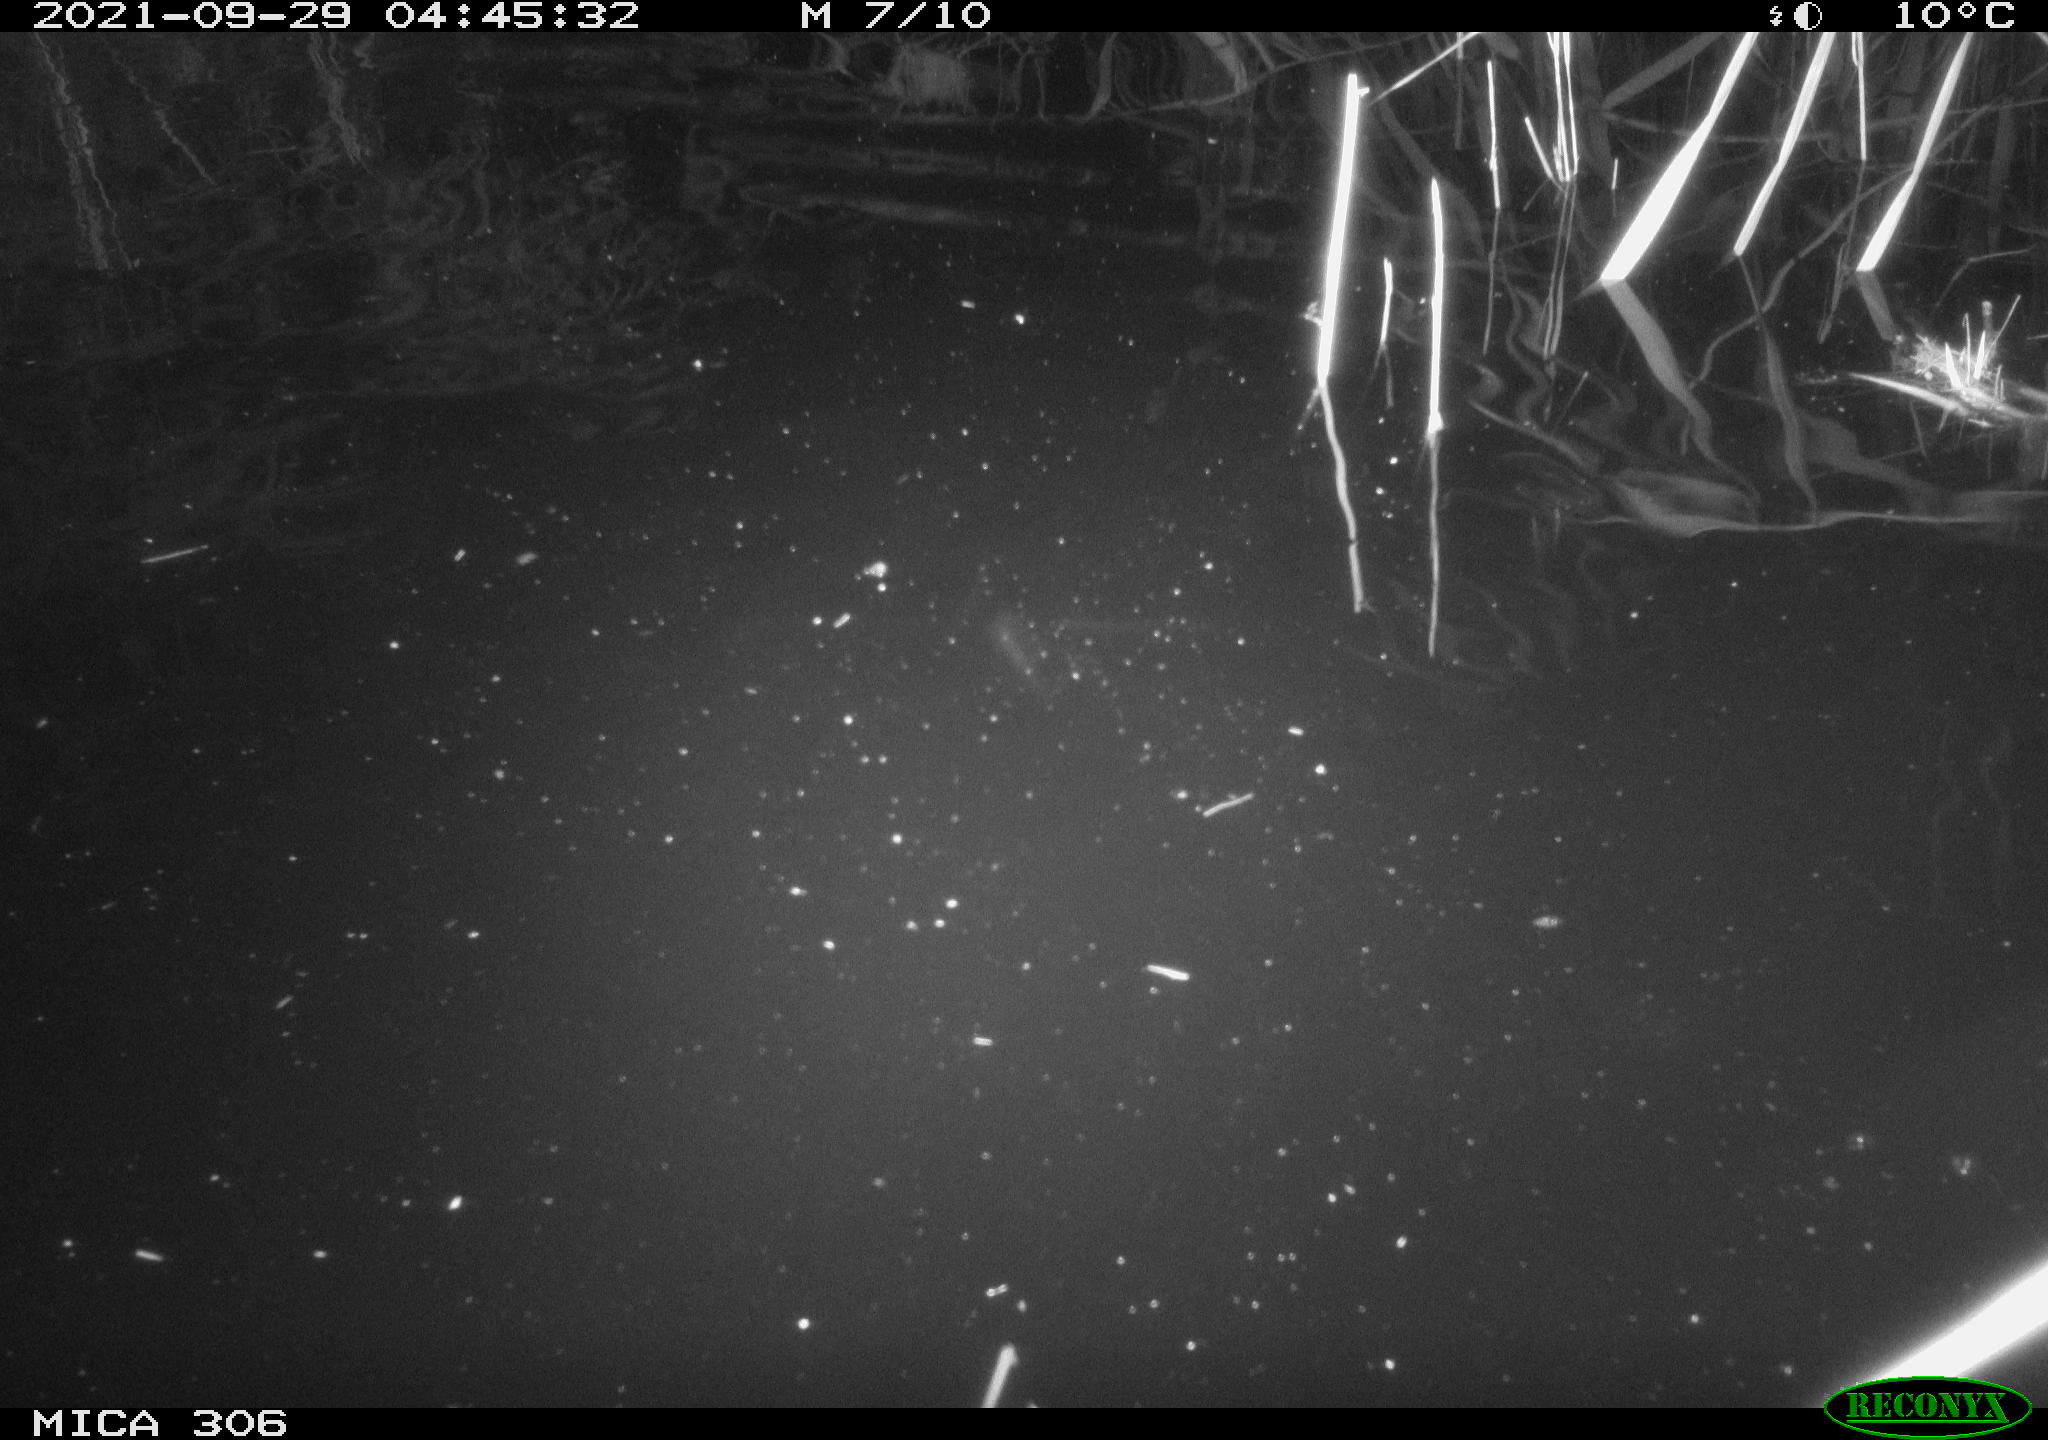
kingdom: Animalia
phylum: Chordata
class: Mammalia
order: Rodentia
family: Cricetidae
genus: Ondatra
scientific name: Ondatra zibethicus
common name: Muskrat
